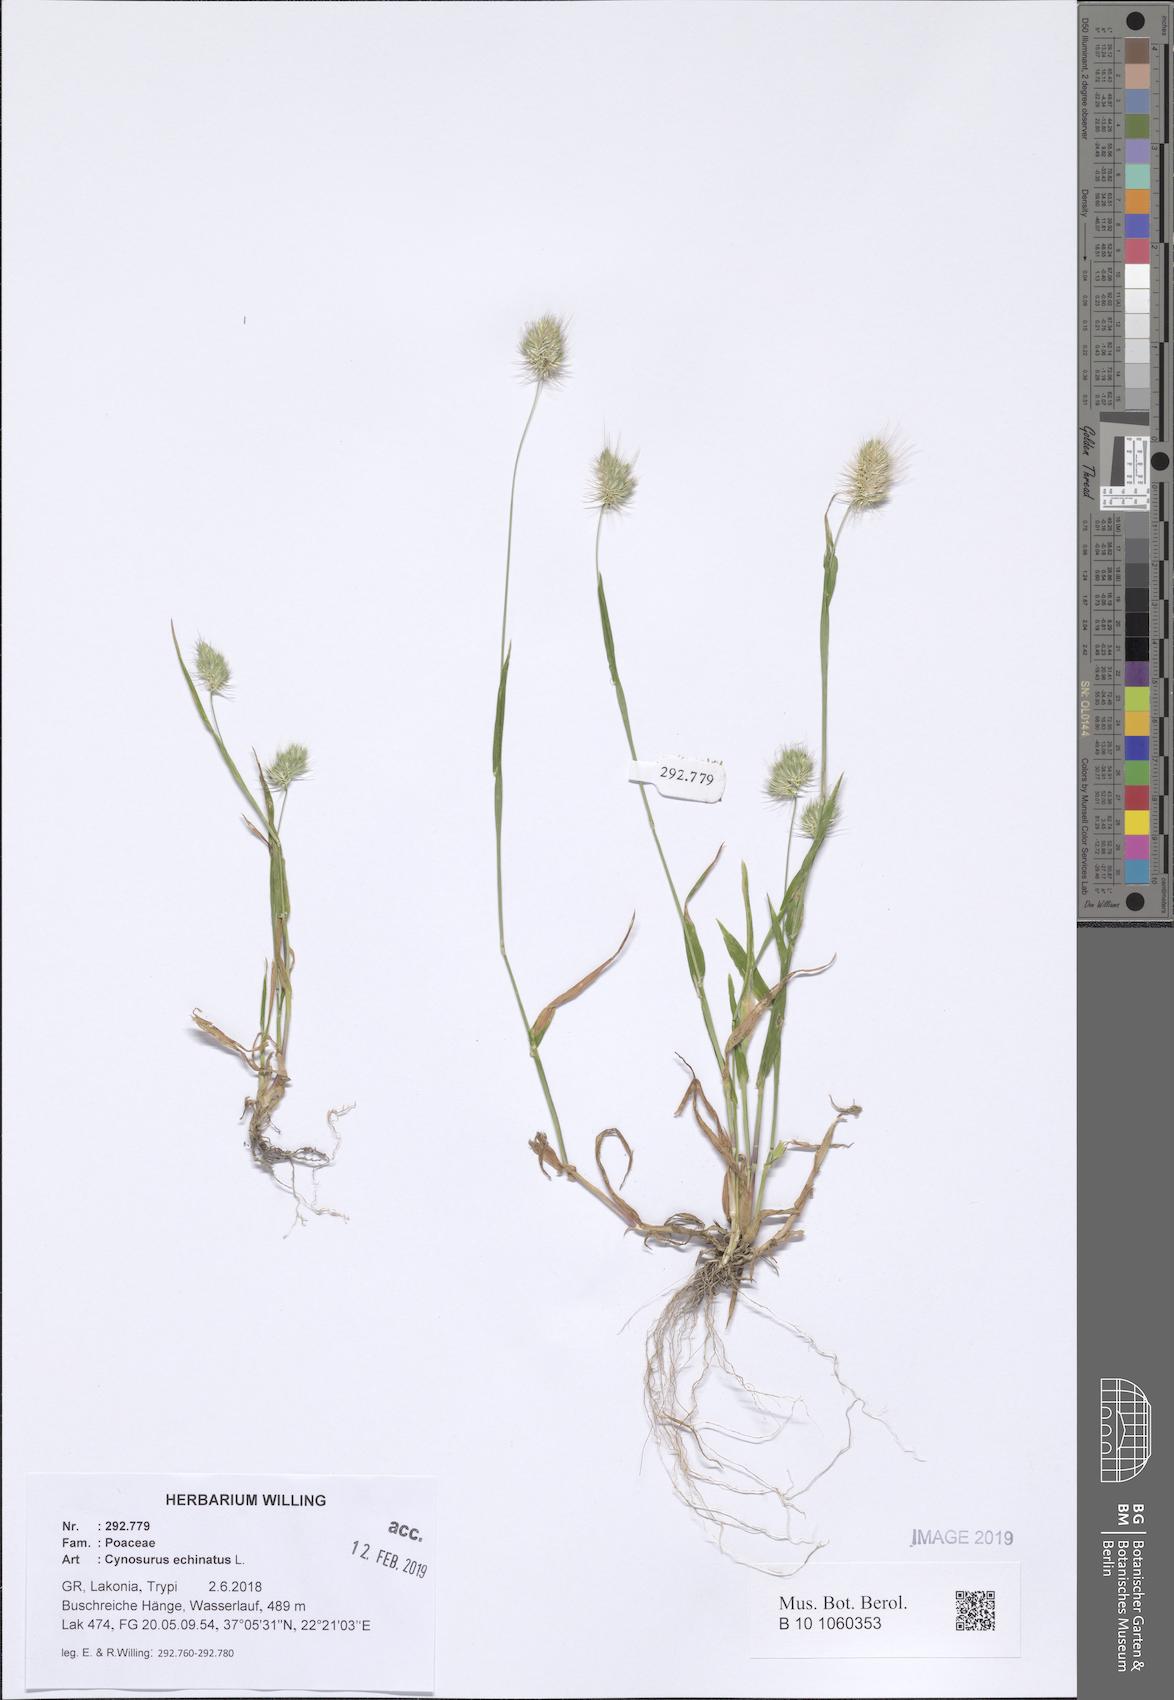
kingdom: Plantae
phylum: Tracheophyta
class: Liliopsida
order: Poales
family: Poaceae
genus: Cynosurus
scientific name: Cynosurus echinatus
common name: Rough dog's-tail
